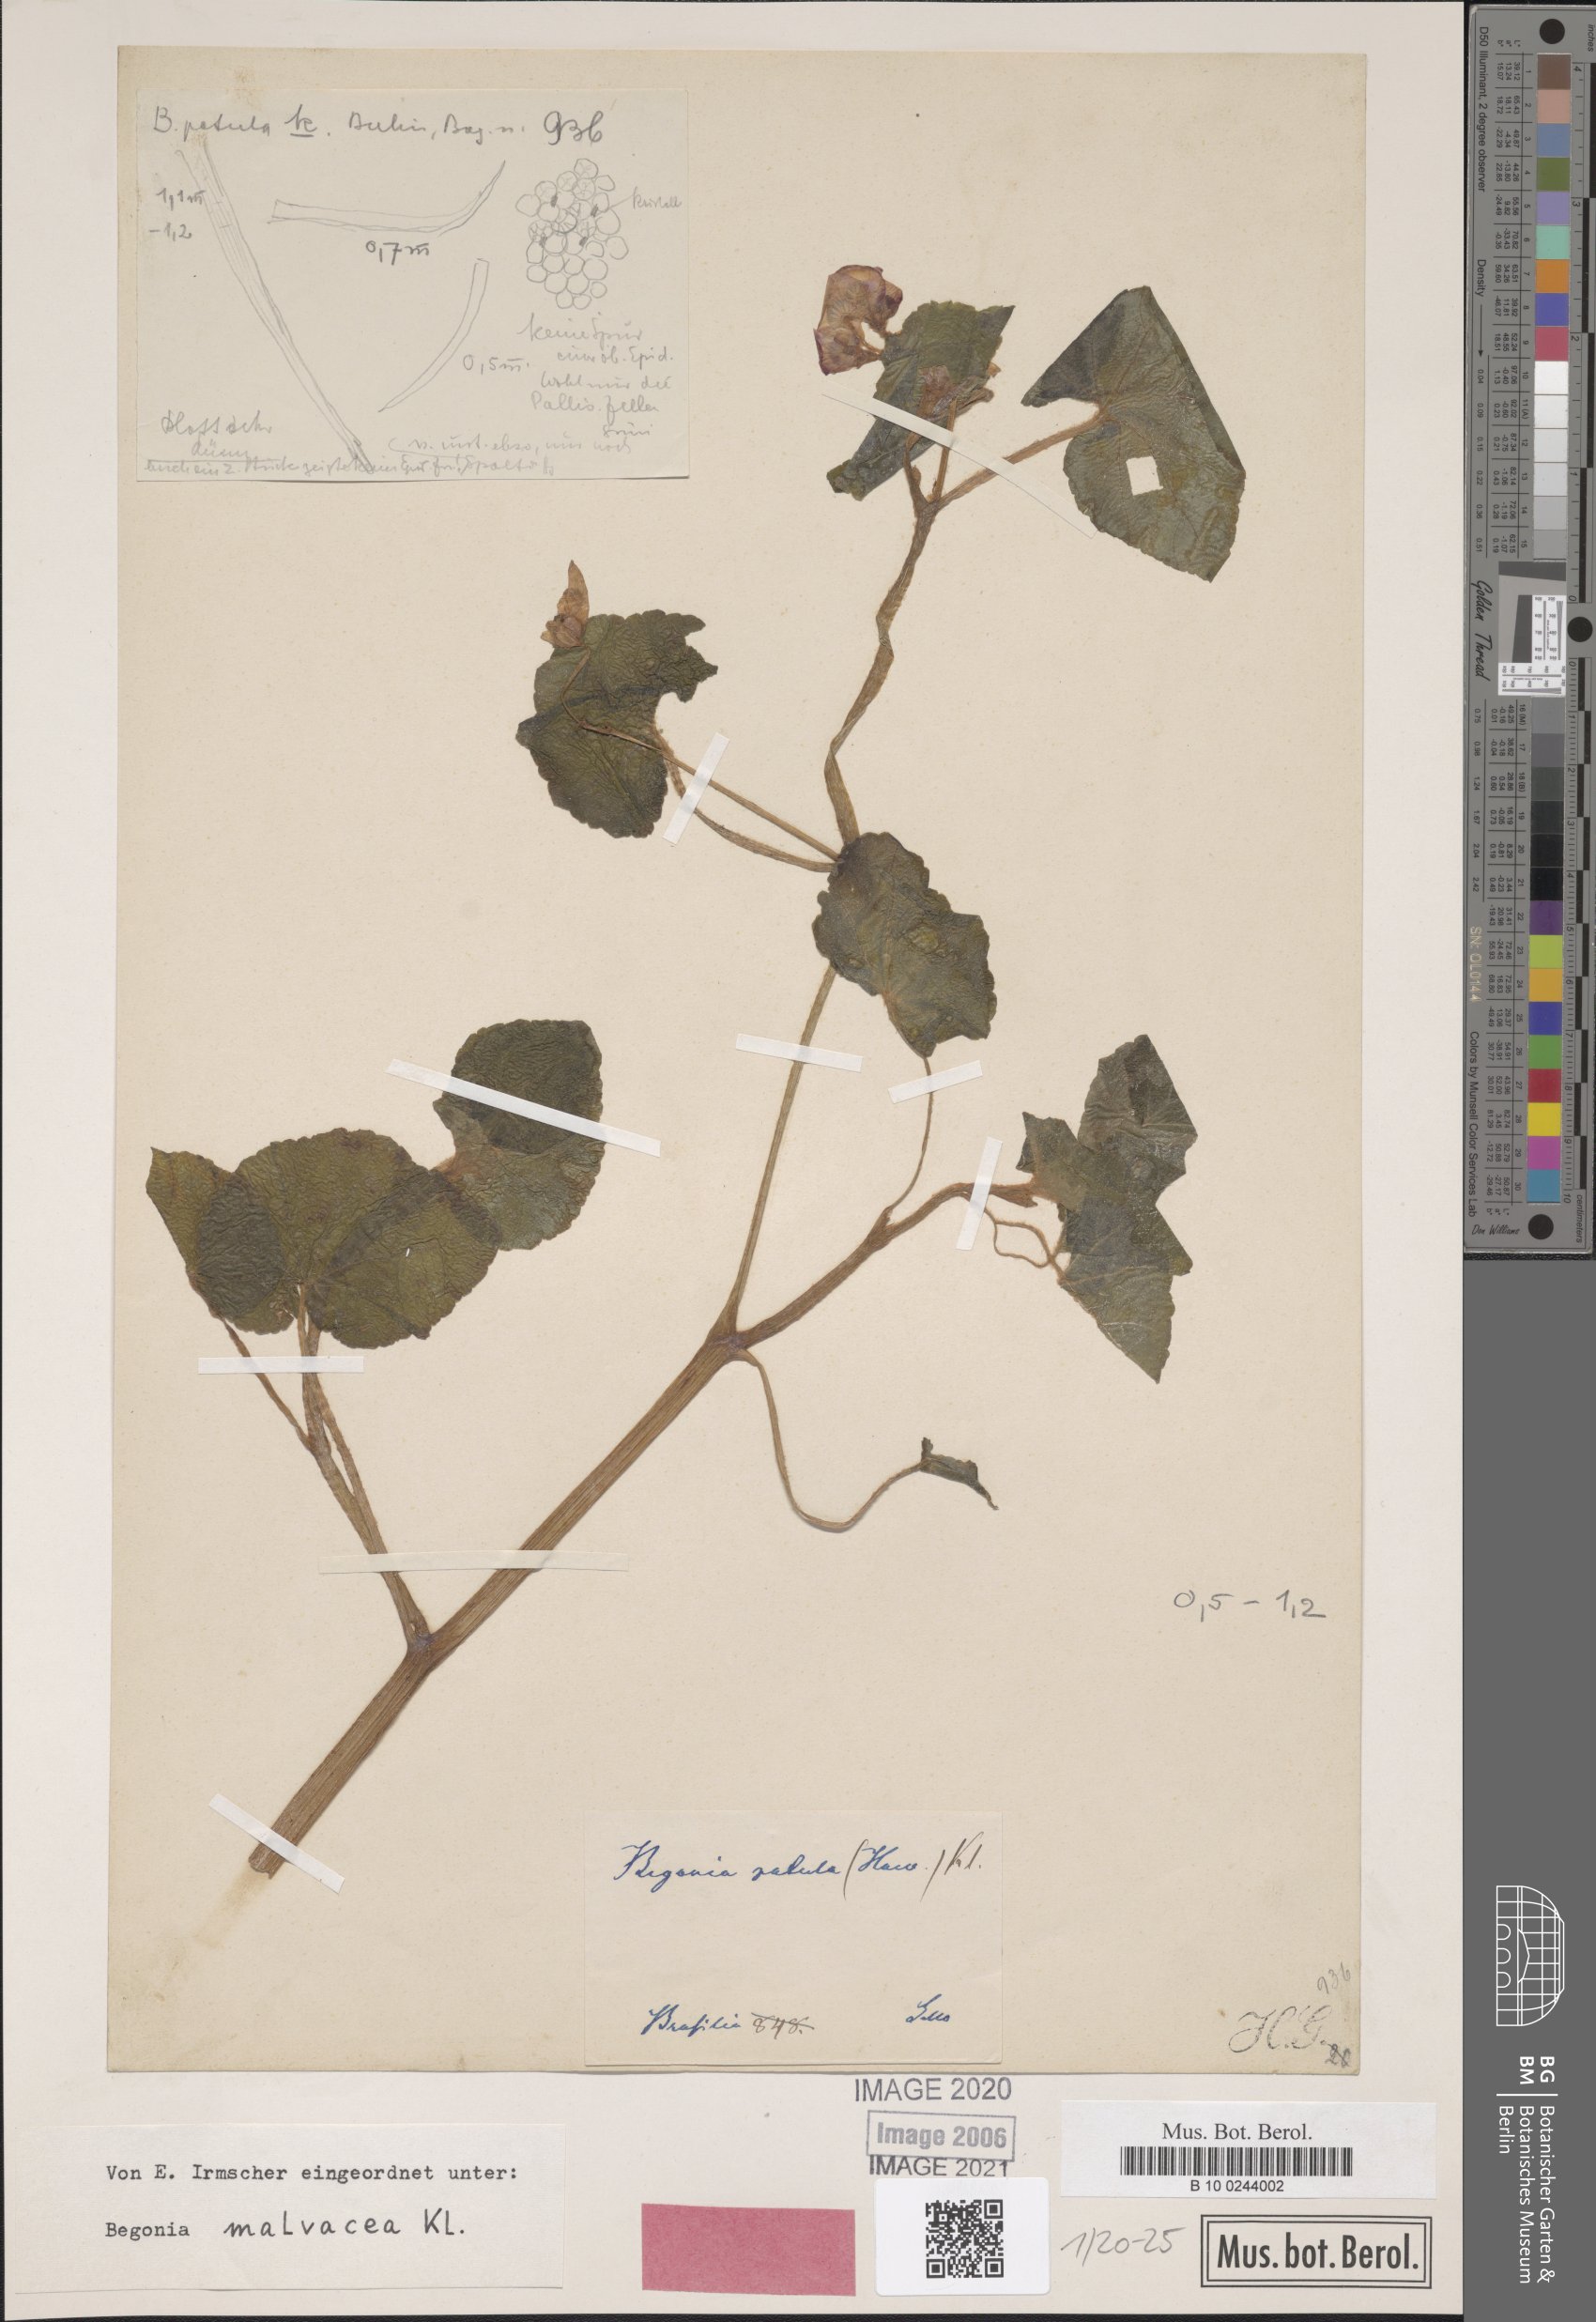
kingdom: Plantae
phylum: Tracheophyta
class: Magnoliopsida
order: Cucurbitales
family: Begoniaceae
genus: Begonia
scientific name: Begonia fischeri
